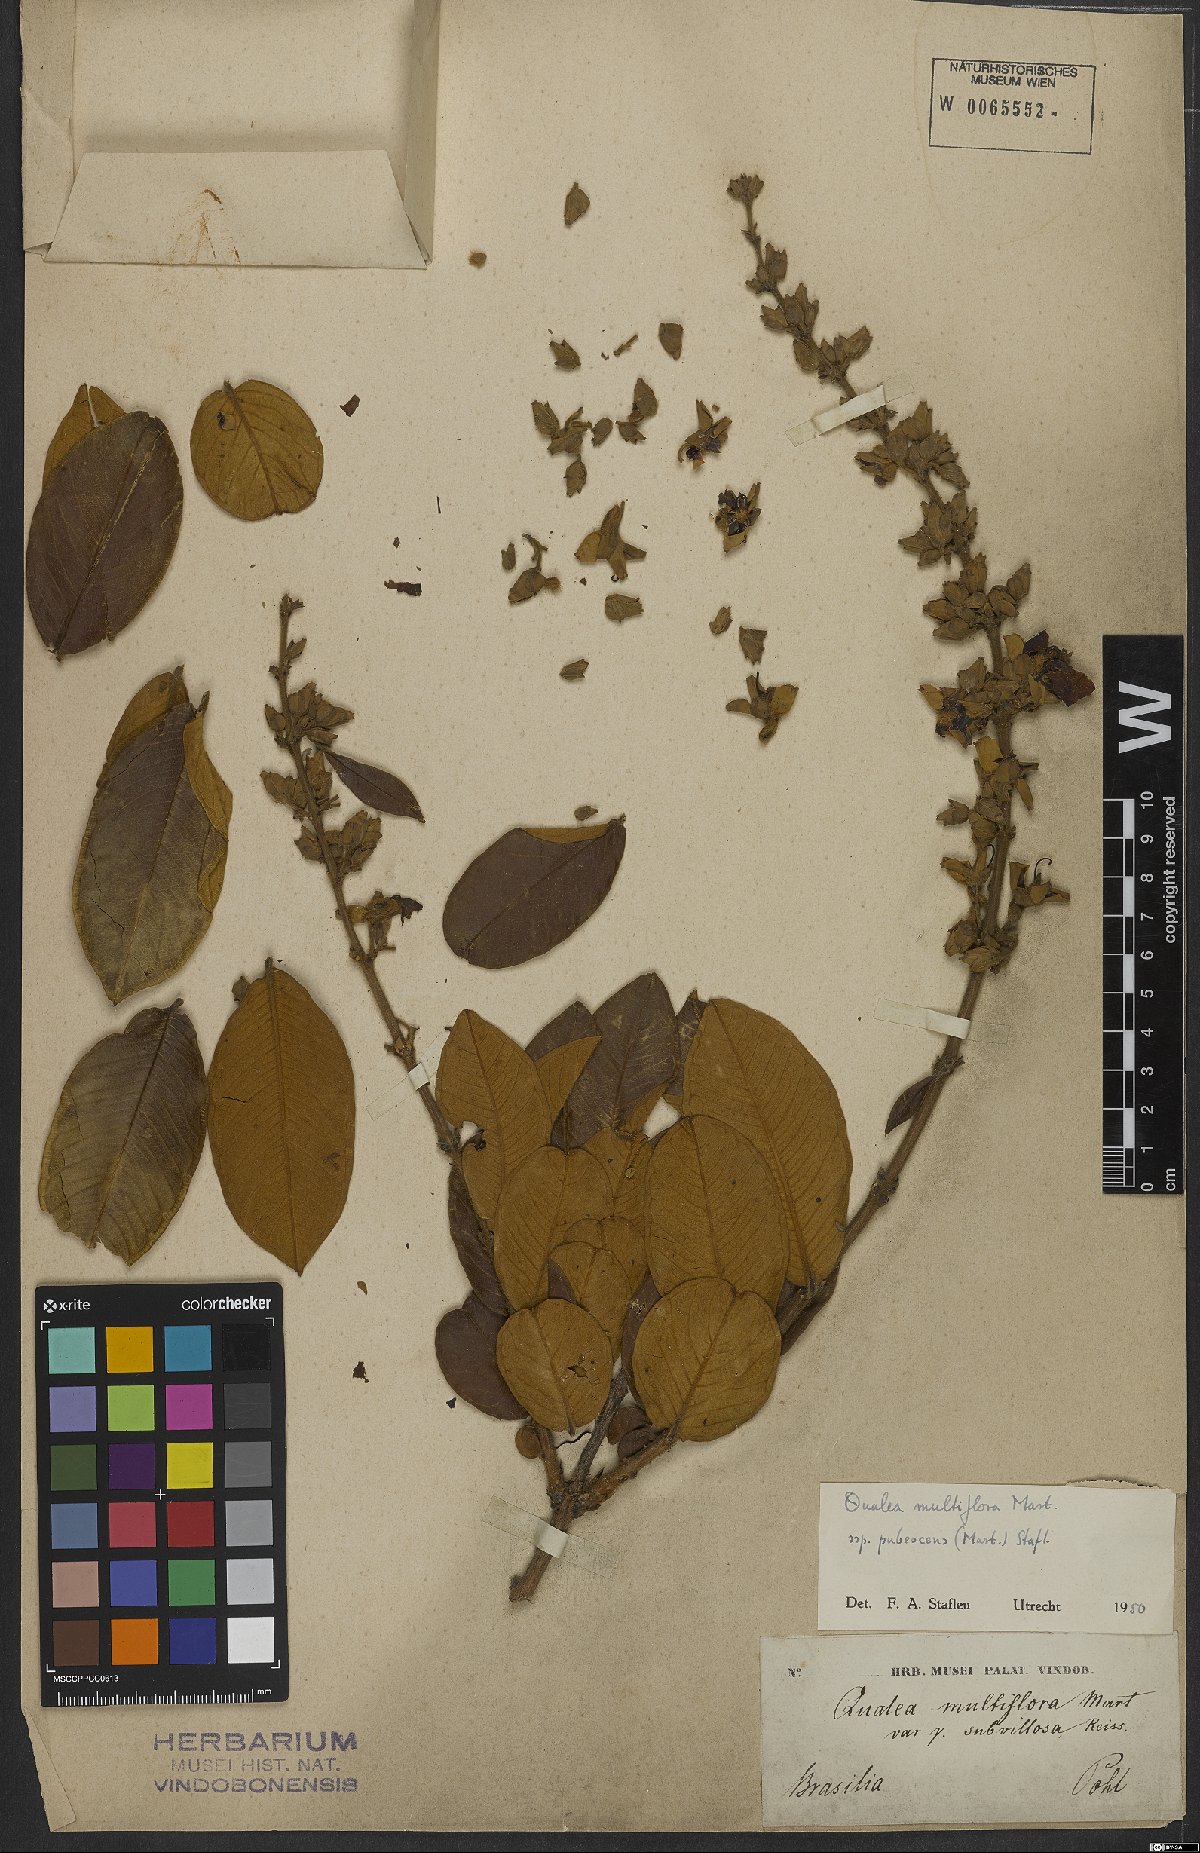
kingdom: Plantae
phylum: Tracheophyta
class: Magnoliopsida
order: Myrtales
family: Vochysiaceae
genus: Qualea
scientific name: Qualea multiflora
